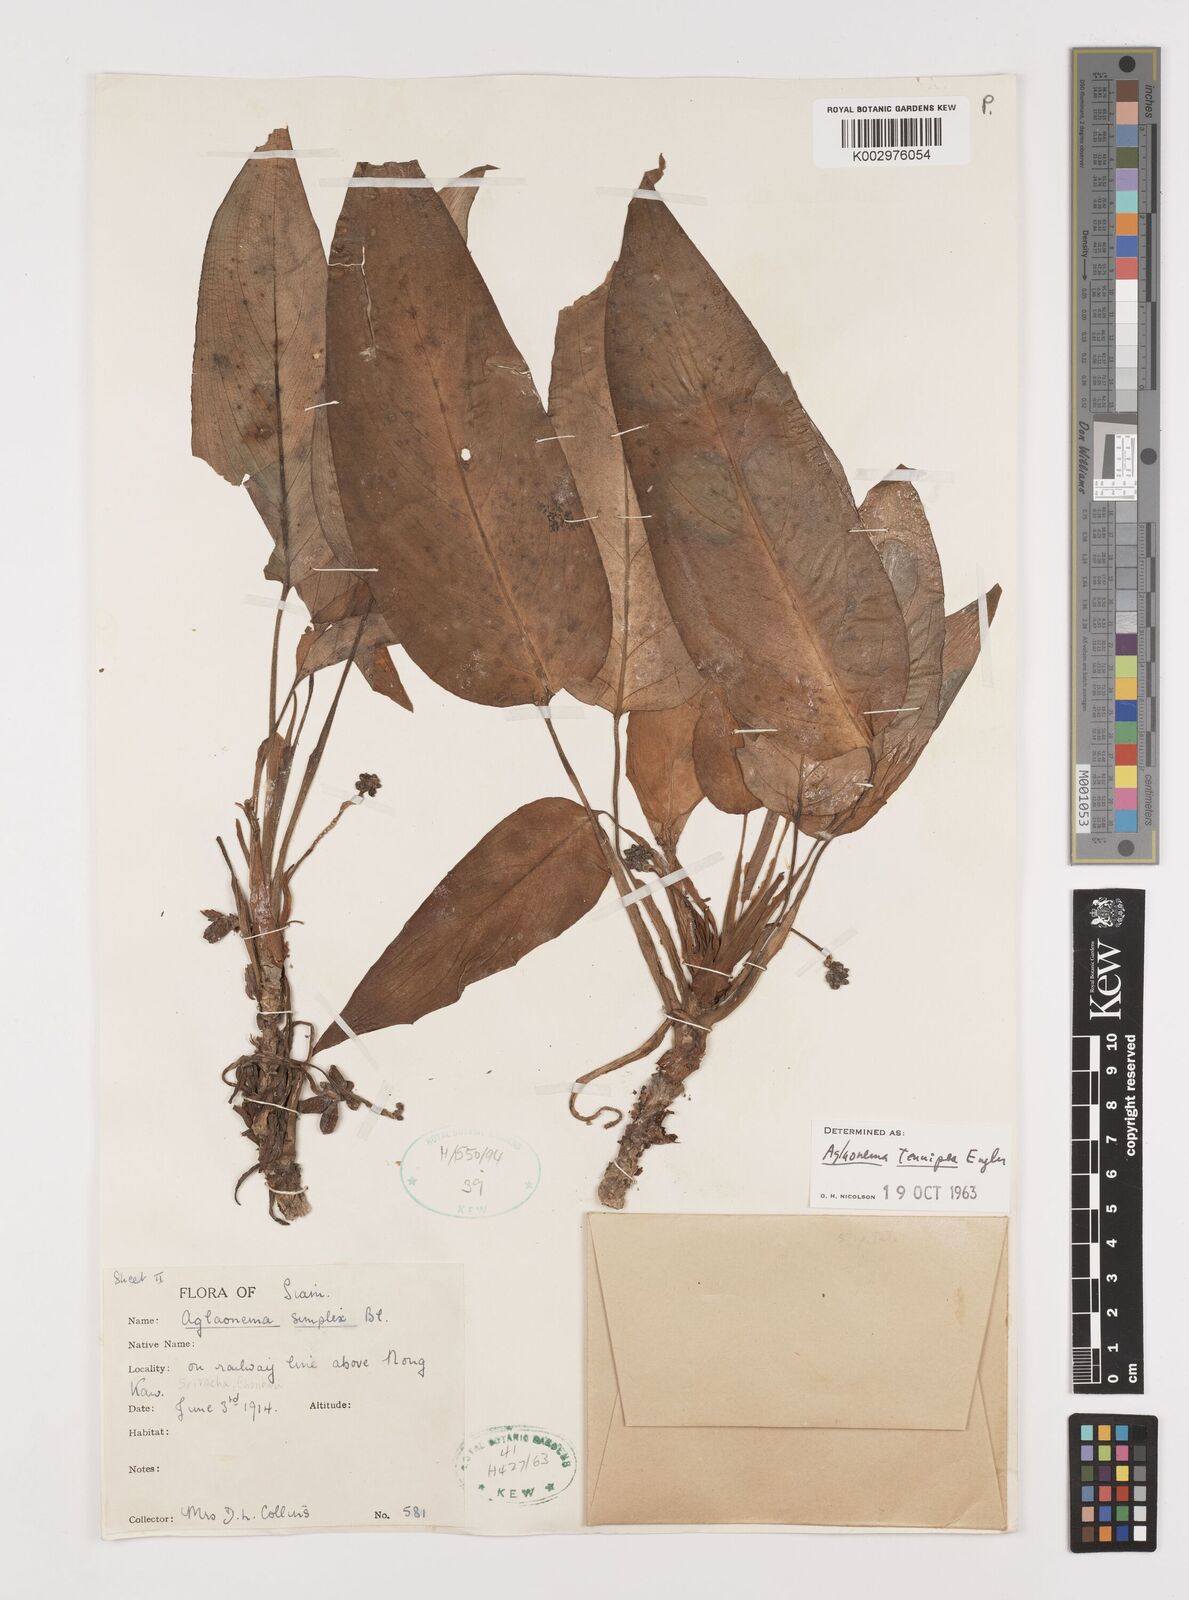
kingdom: Plantae
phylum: Tracheophyta
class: Liliopsida
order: Alismatales
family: Araceae
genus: Aglaonema
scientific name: Aglaonema simplex
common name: Malayan-sword
